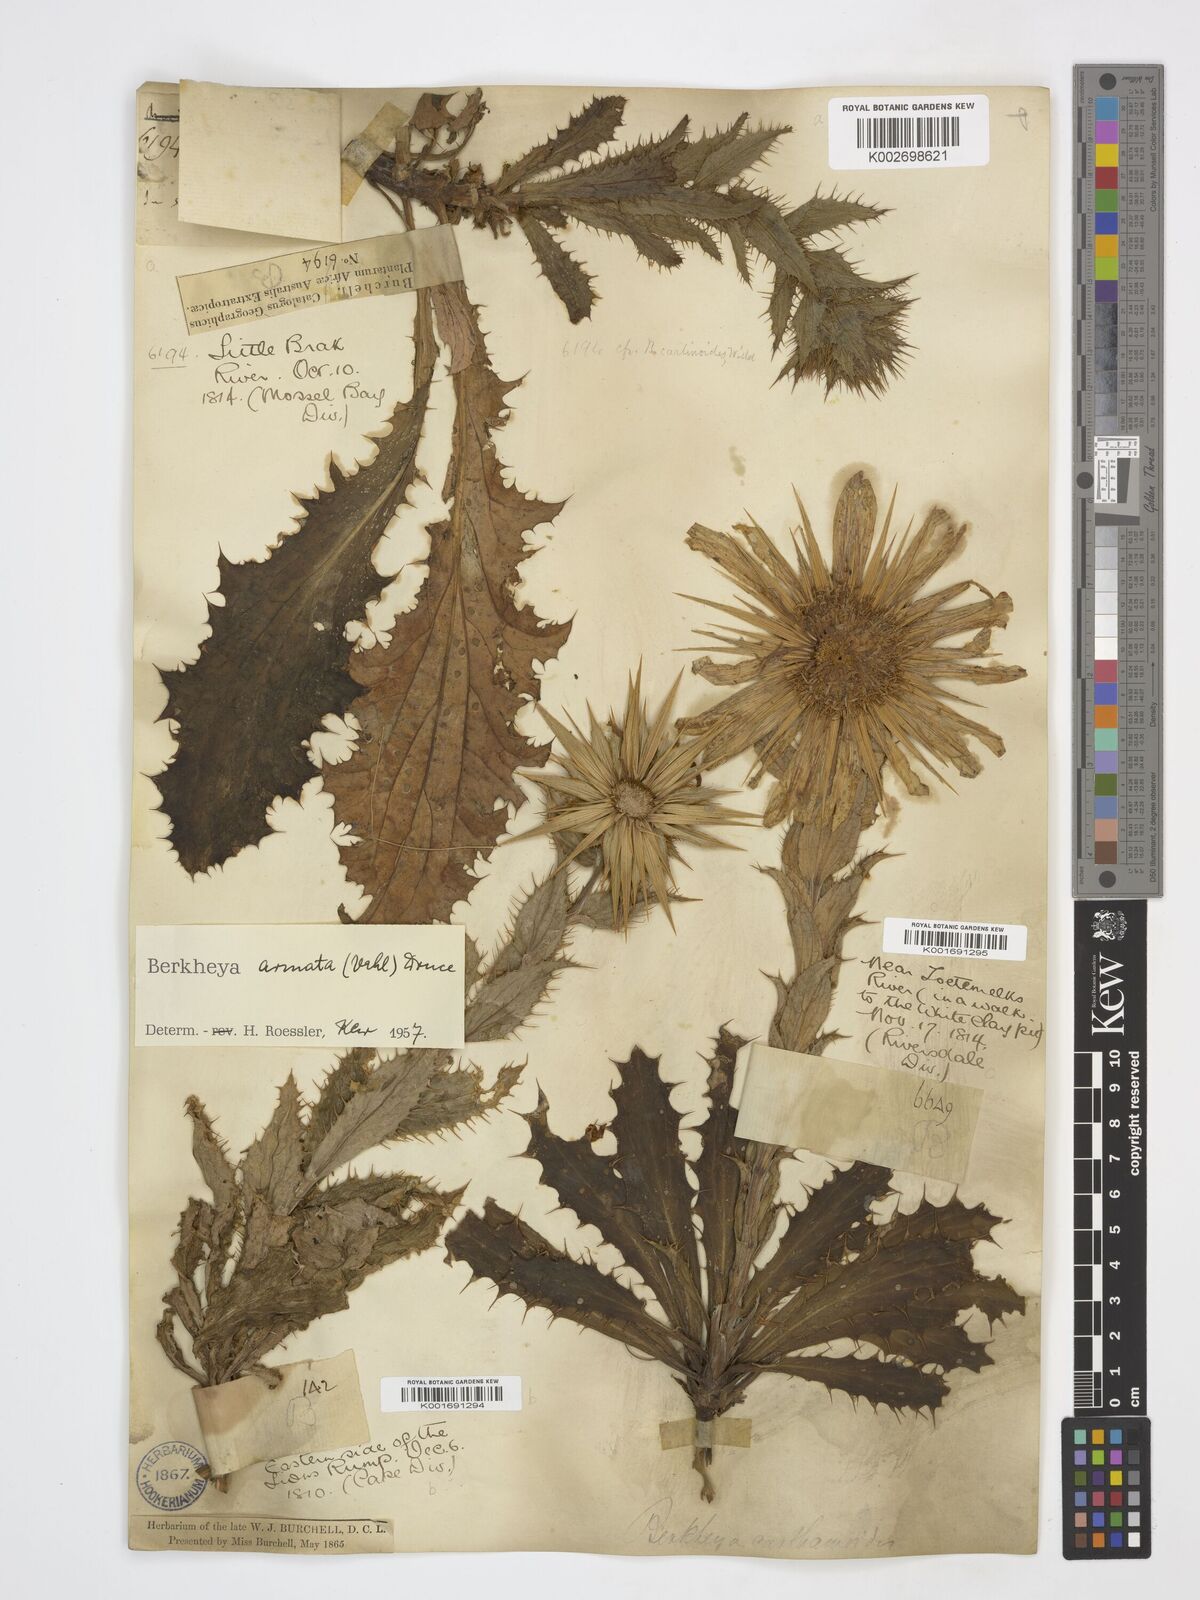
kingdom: Plantae
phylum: Tracheophyta
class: Magnoliopsida
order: Asterales
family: Asteraceae
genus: Berkheya
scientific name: Berkheya armata
